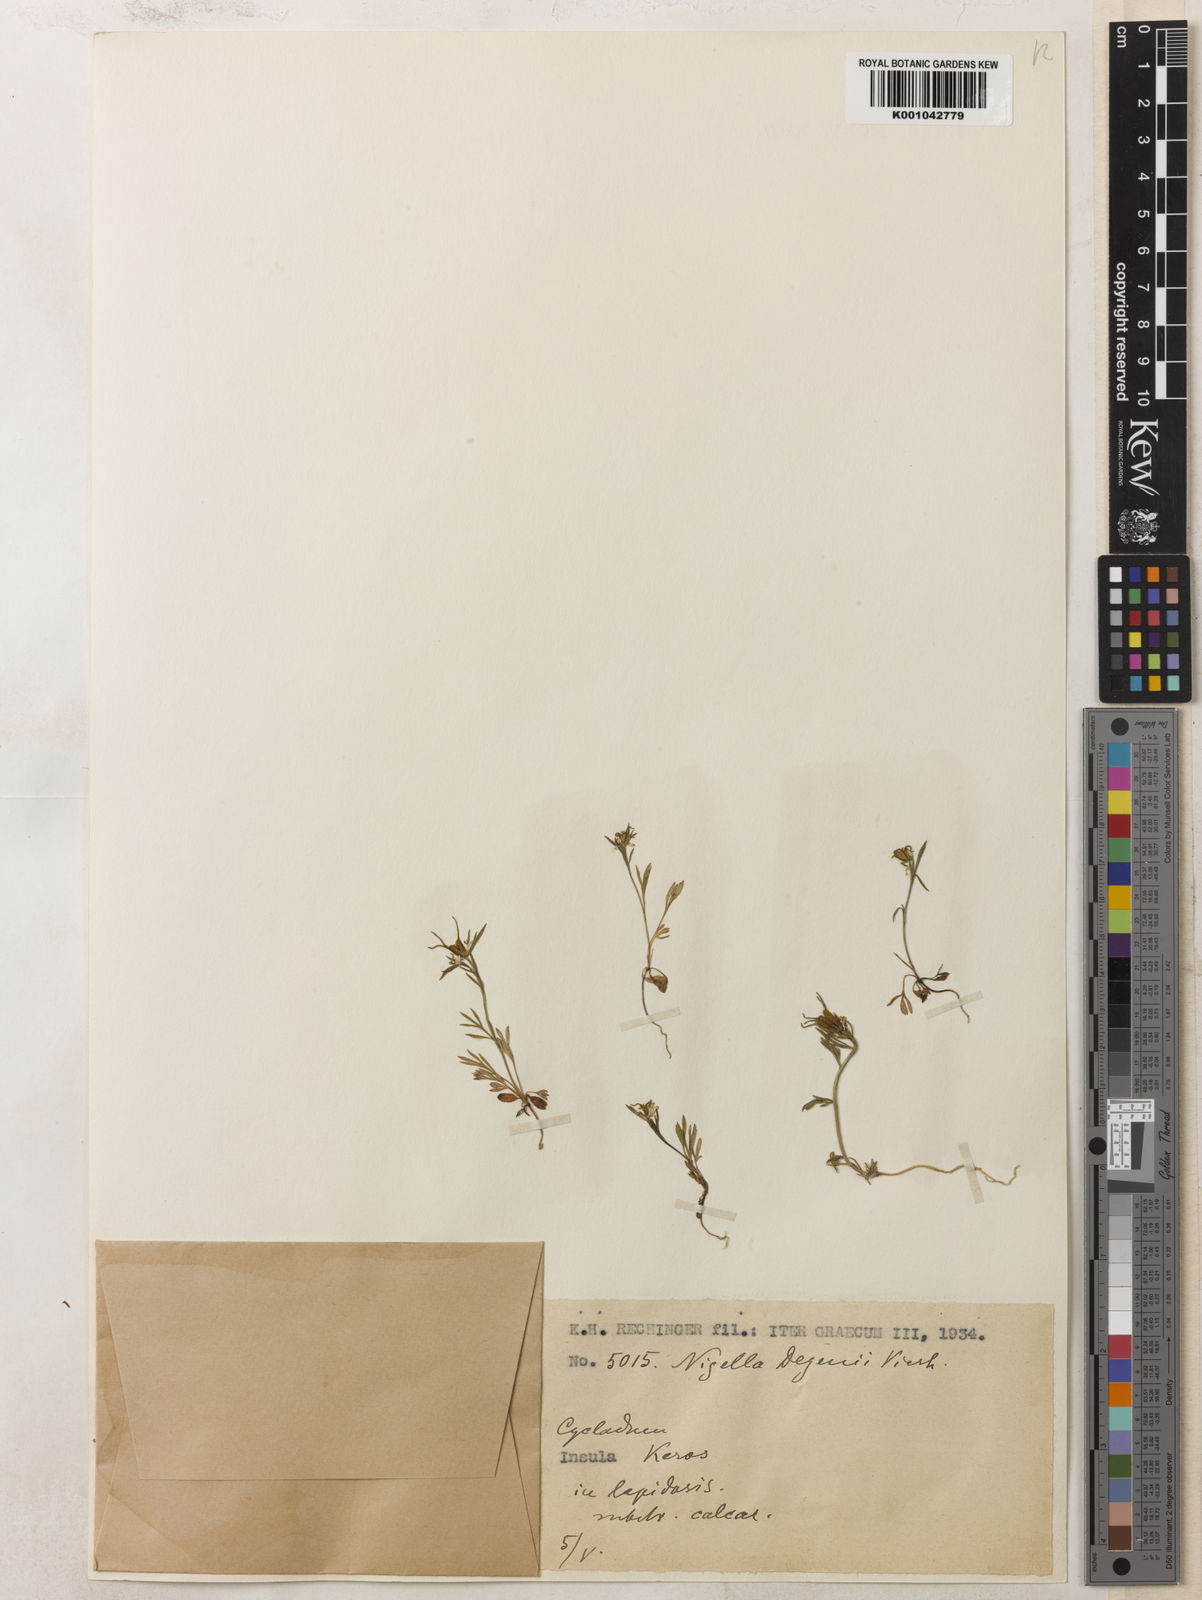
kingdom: Plantae
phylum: Tracheophyta
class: Magnoliopsida
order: Ranunculales
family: Ranunculaceae
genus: Nigella
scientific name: Nigella degenii
